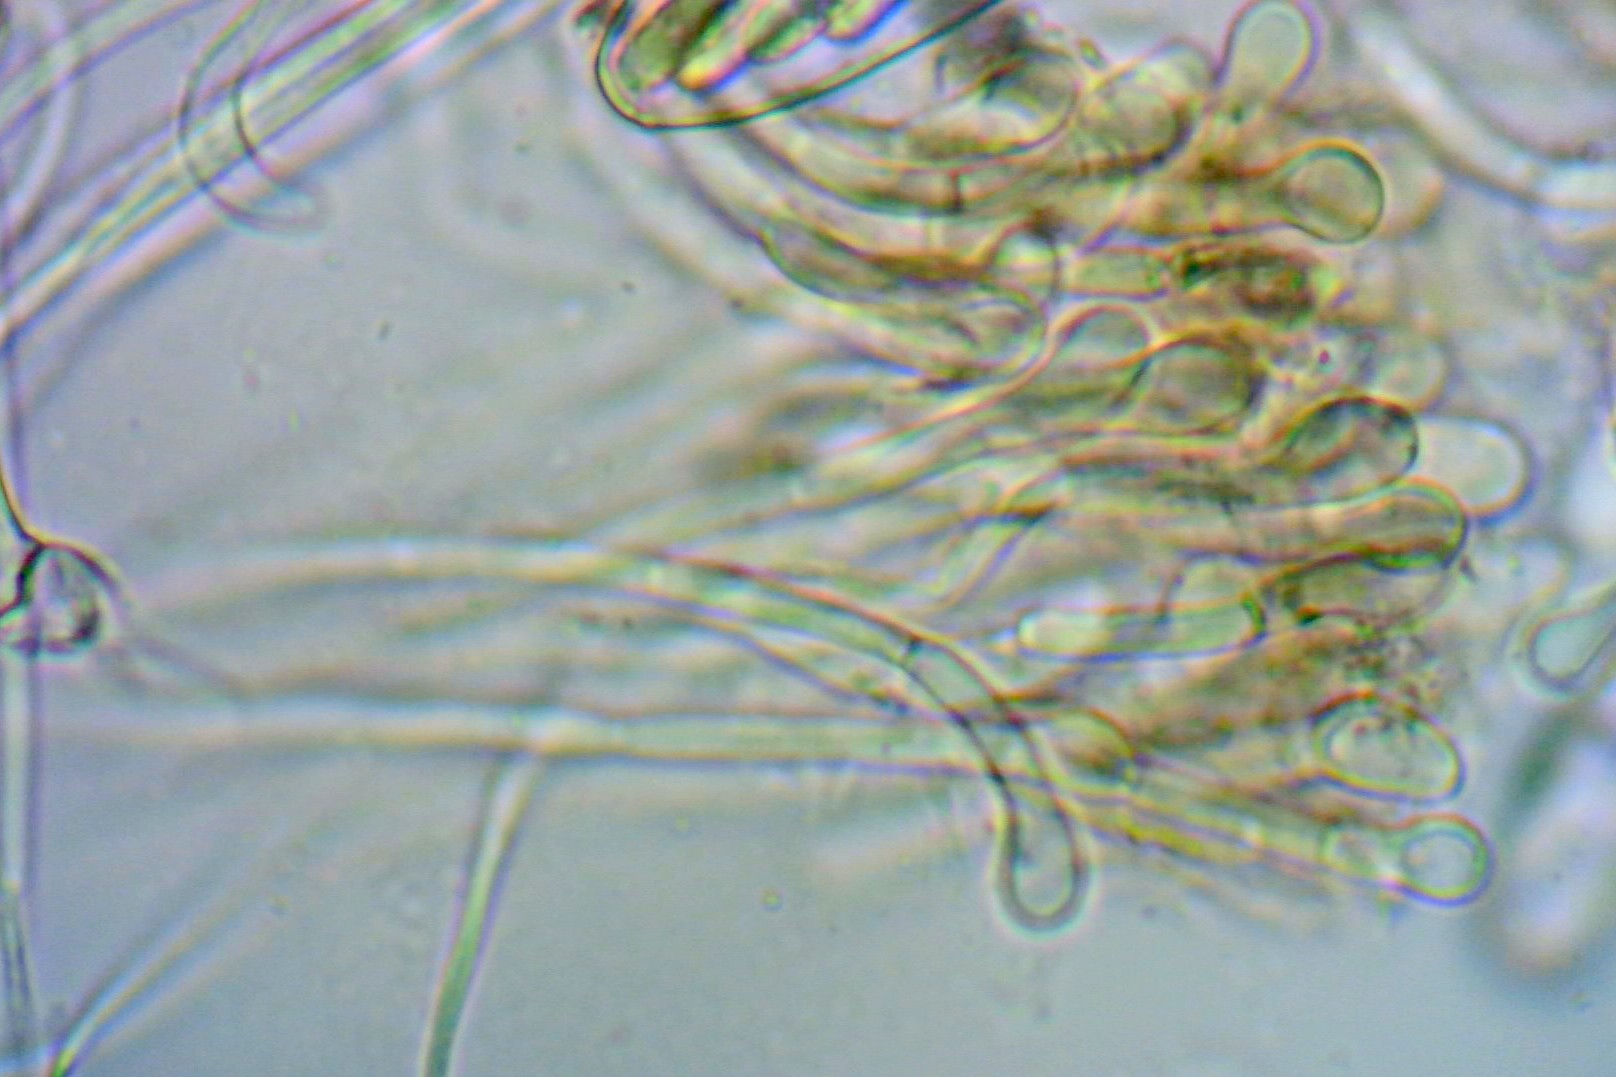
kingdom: Fungi
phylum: Ascomycota
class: Geoglossomycetes
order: Geoglossales
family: Geoglossaceae
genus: Geoglossum
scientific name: Geoglossum fallax
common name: småskællet jordtunge
